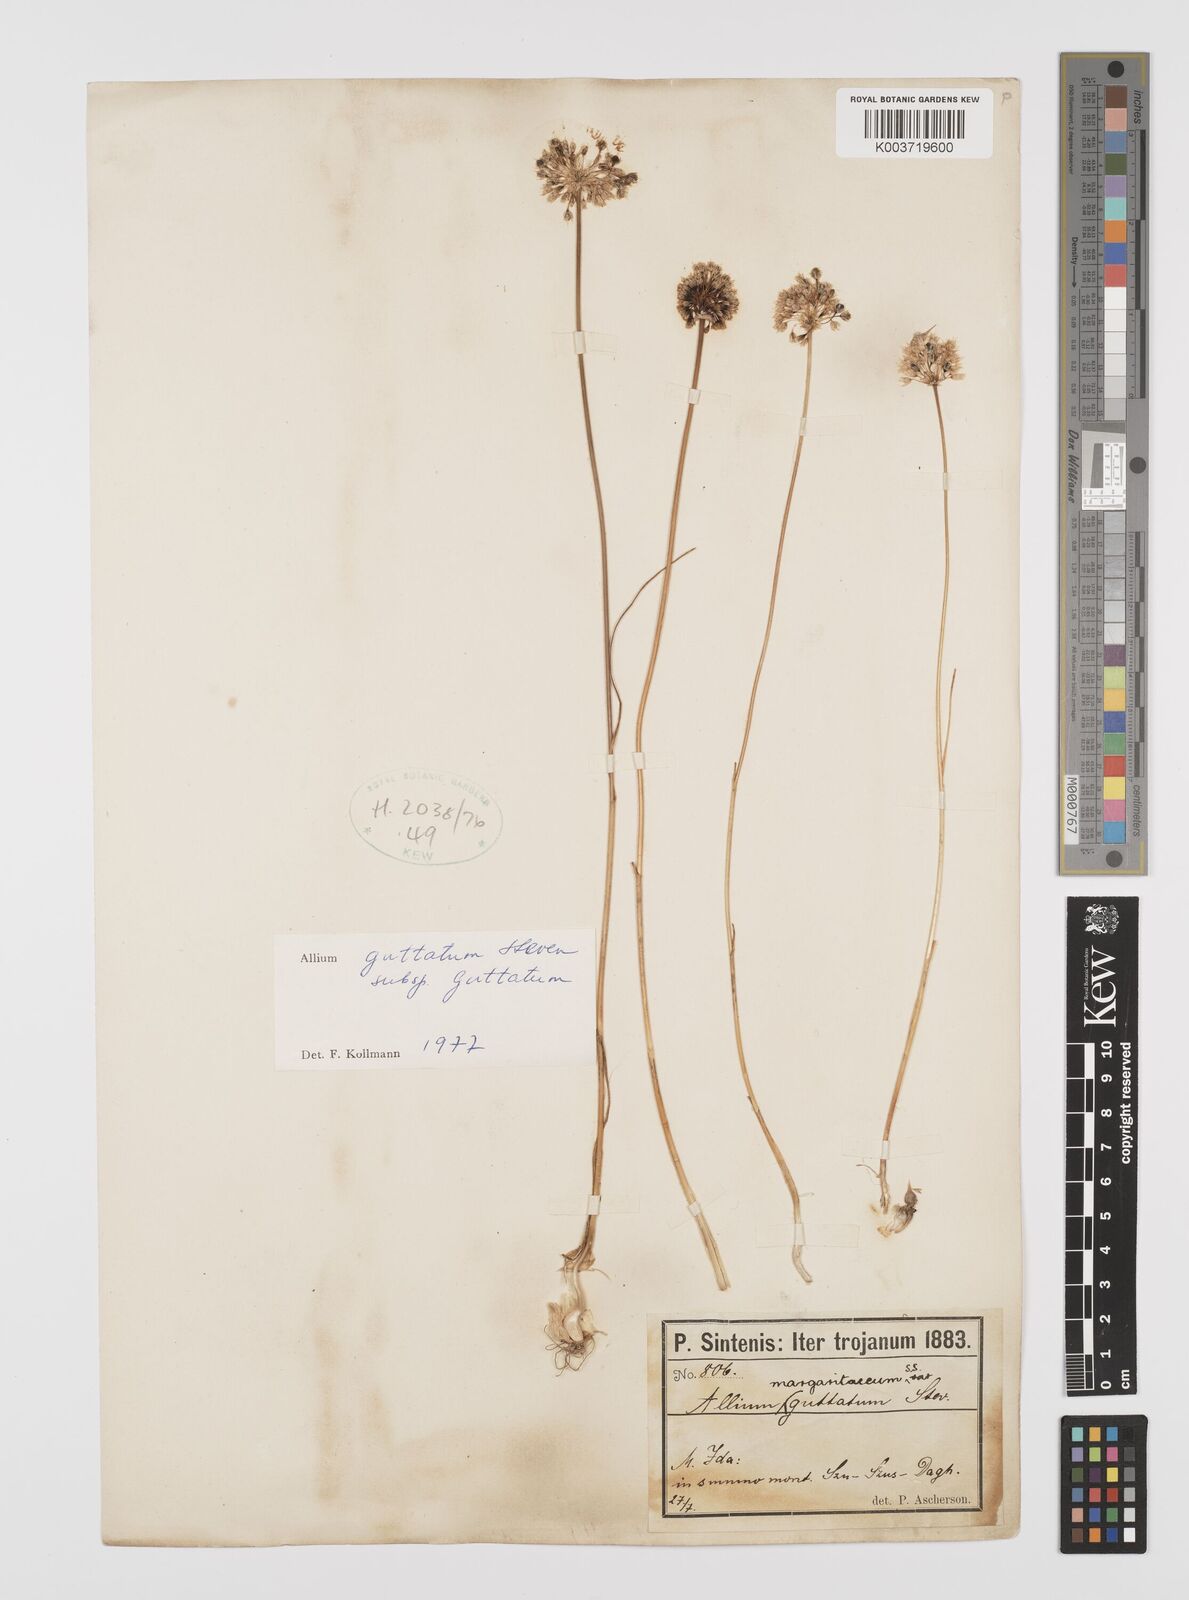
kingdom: Plantae
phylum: Tracheophyta
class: Liliopsida
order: Asparagales
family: Amaryllidaceae
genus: Allium
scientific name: Allium guttatum
